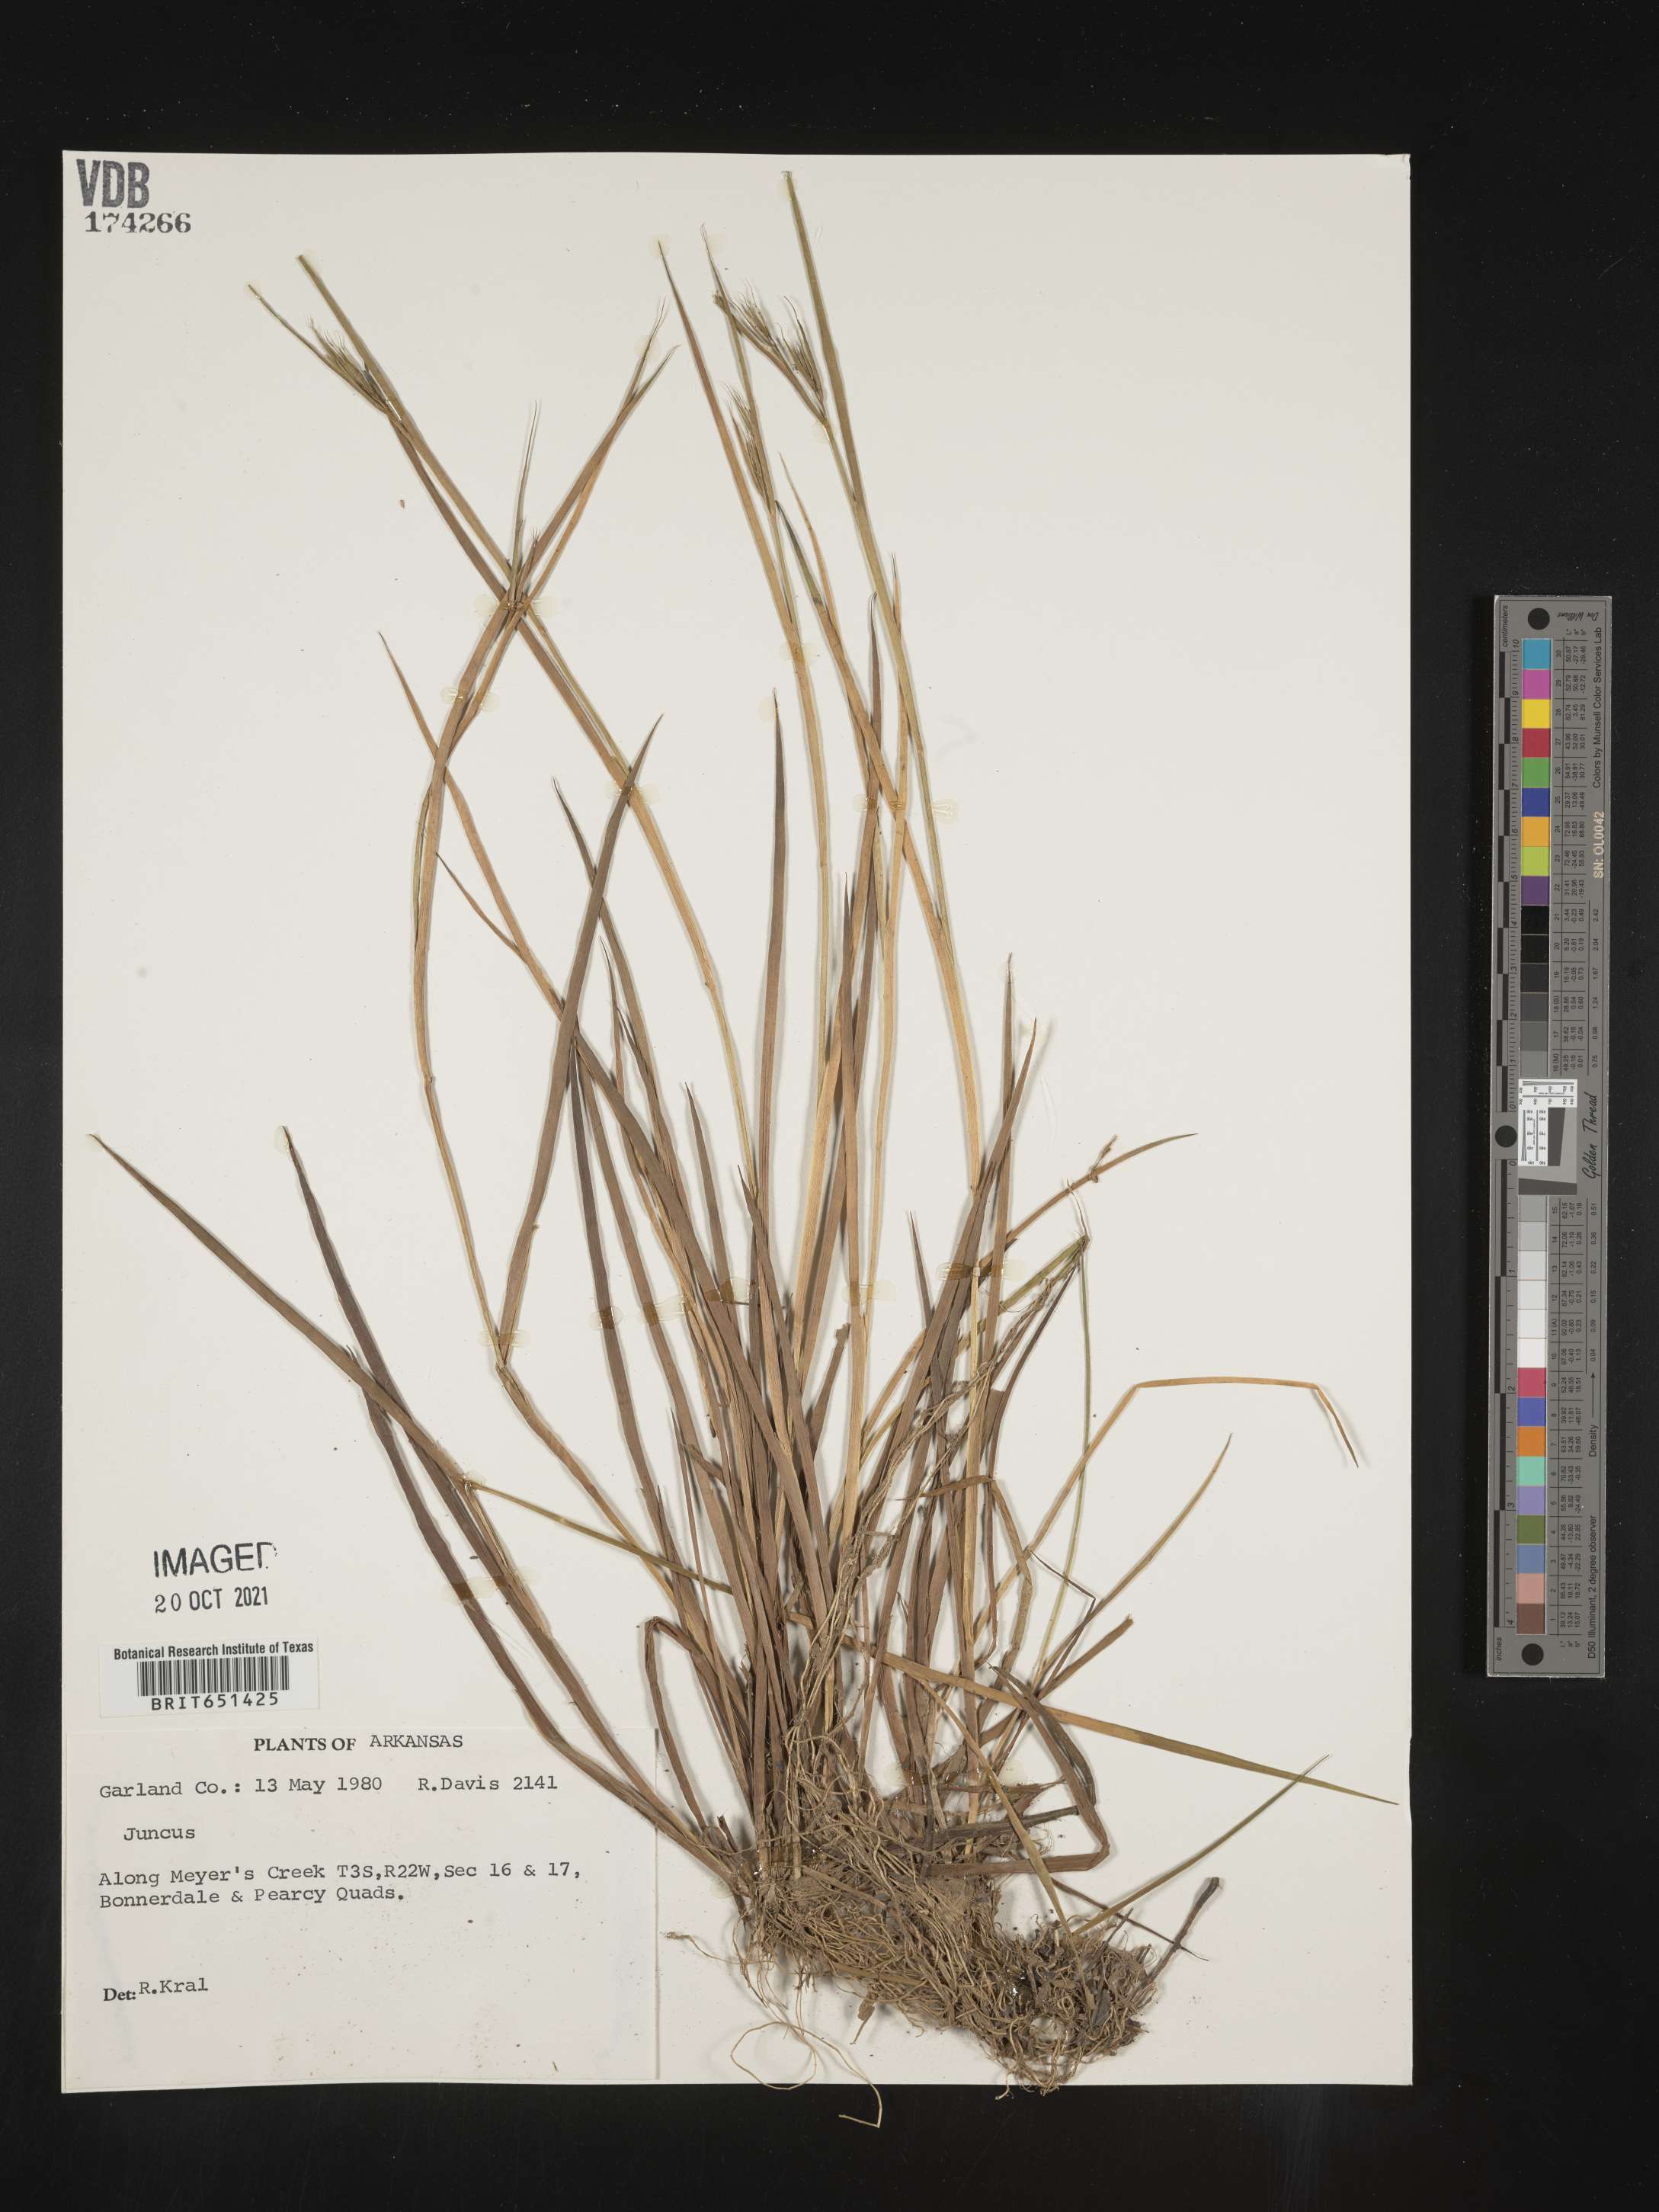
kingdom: Plantae
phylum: Tracheophyta
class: Liliopsida
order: Poales
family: Juncaceae
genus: Juncus
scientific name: Juncus
